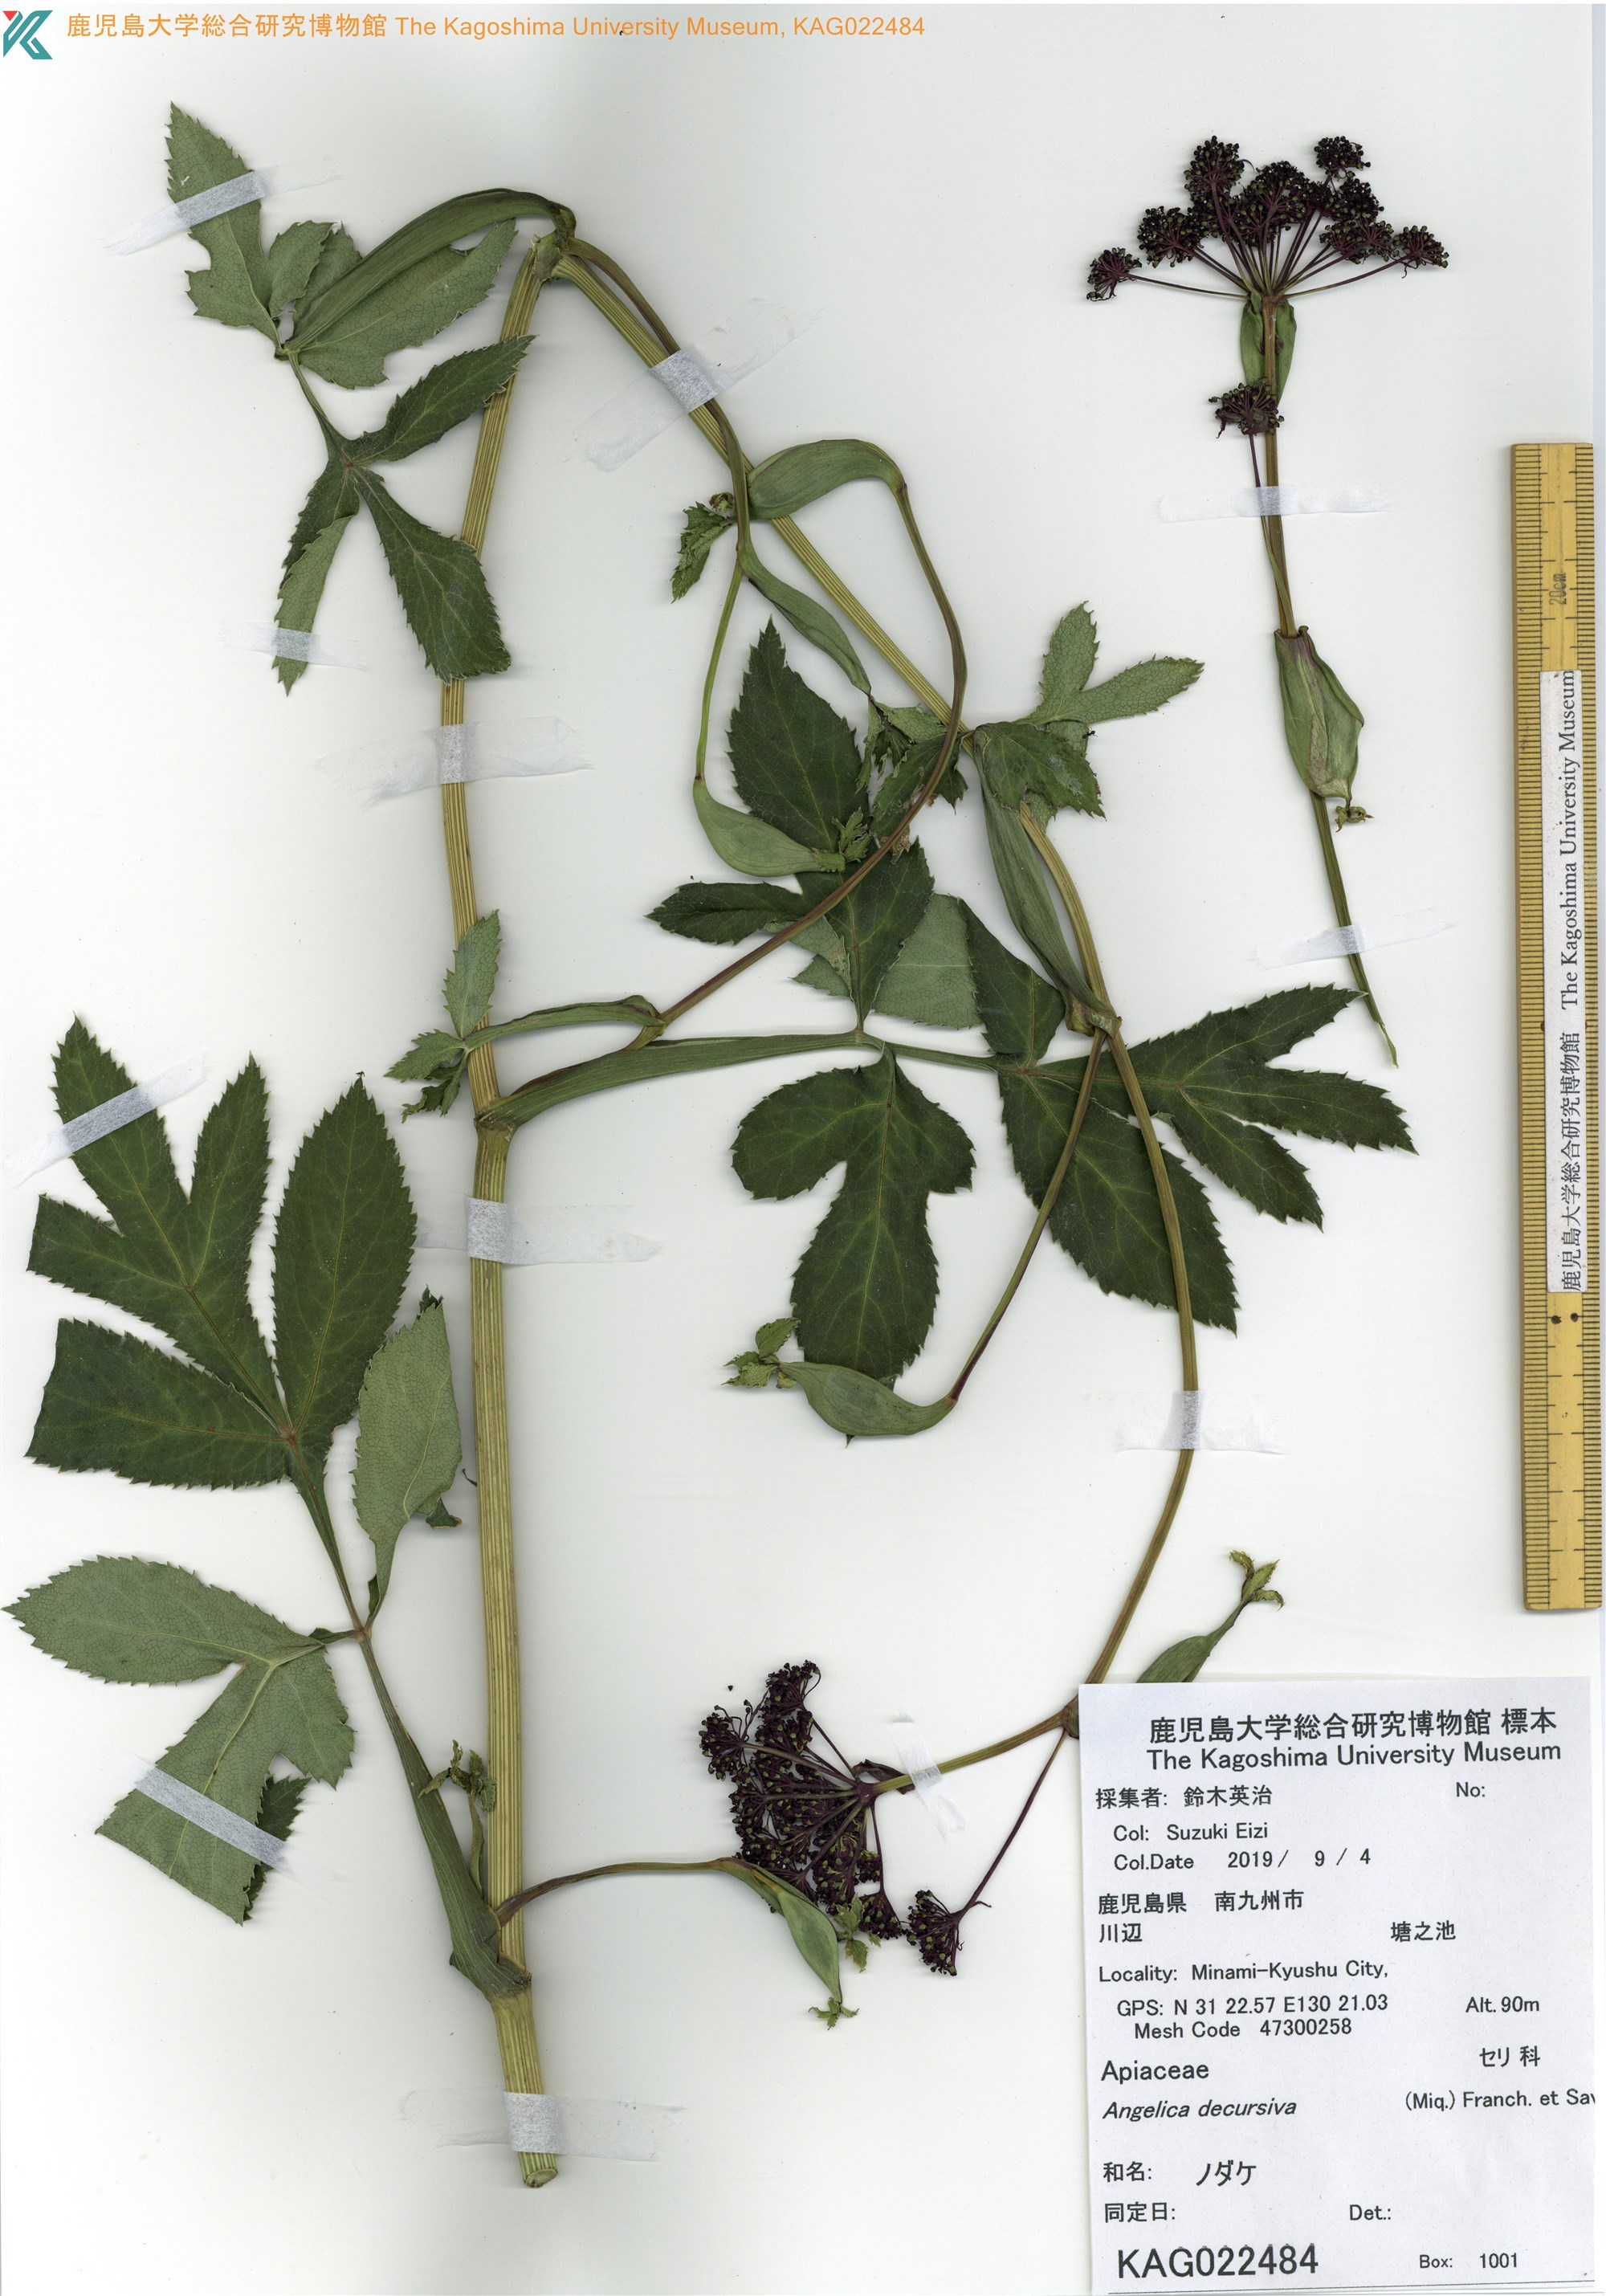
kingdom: Plantae
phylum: Tracheophyta
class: Magnoliopsida
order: Apiales
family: Apiaceae
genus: Halosciastrum
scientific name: Halosciastrum melanotilingia
